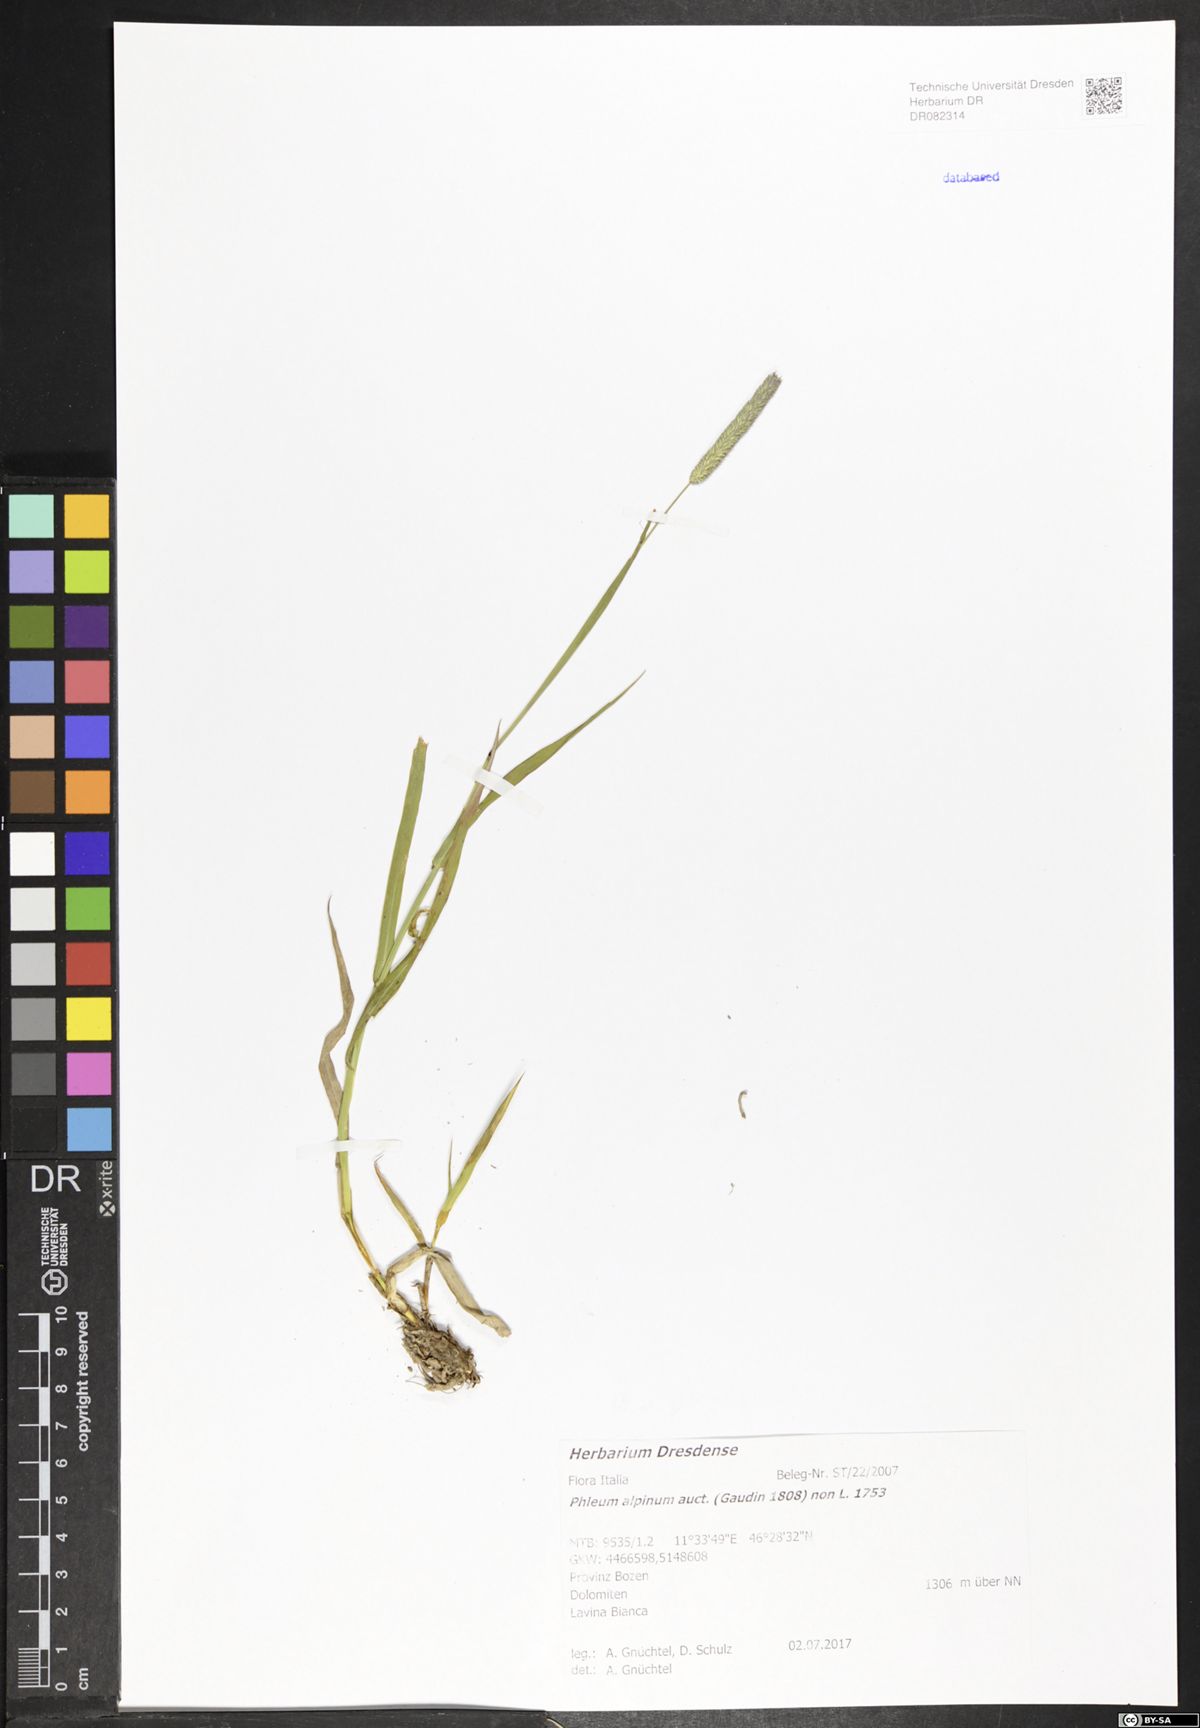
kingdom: Plantae
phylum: Tracheophyta
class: Liliopsida
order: Poales
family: Poaceae
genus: Phleum
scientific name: Phleum alpinum
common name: Alpine cat's-tail
